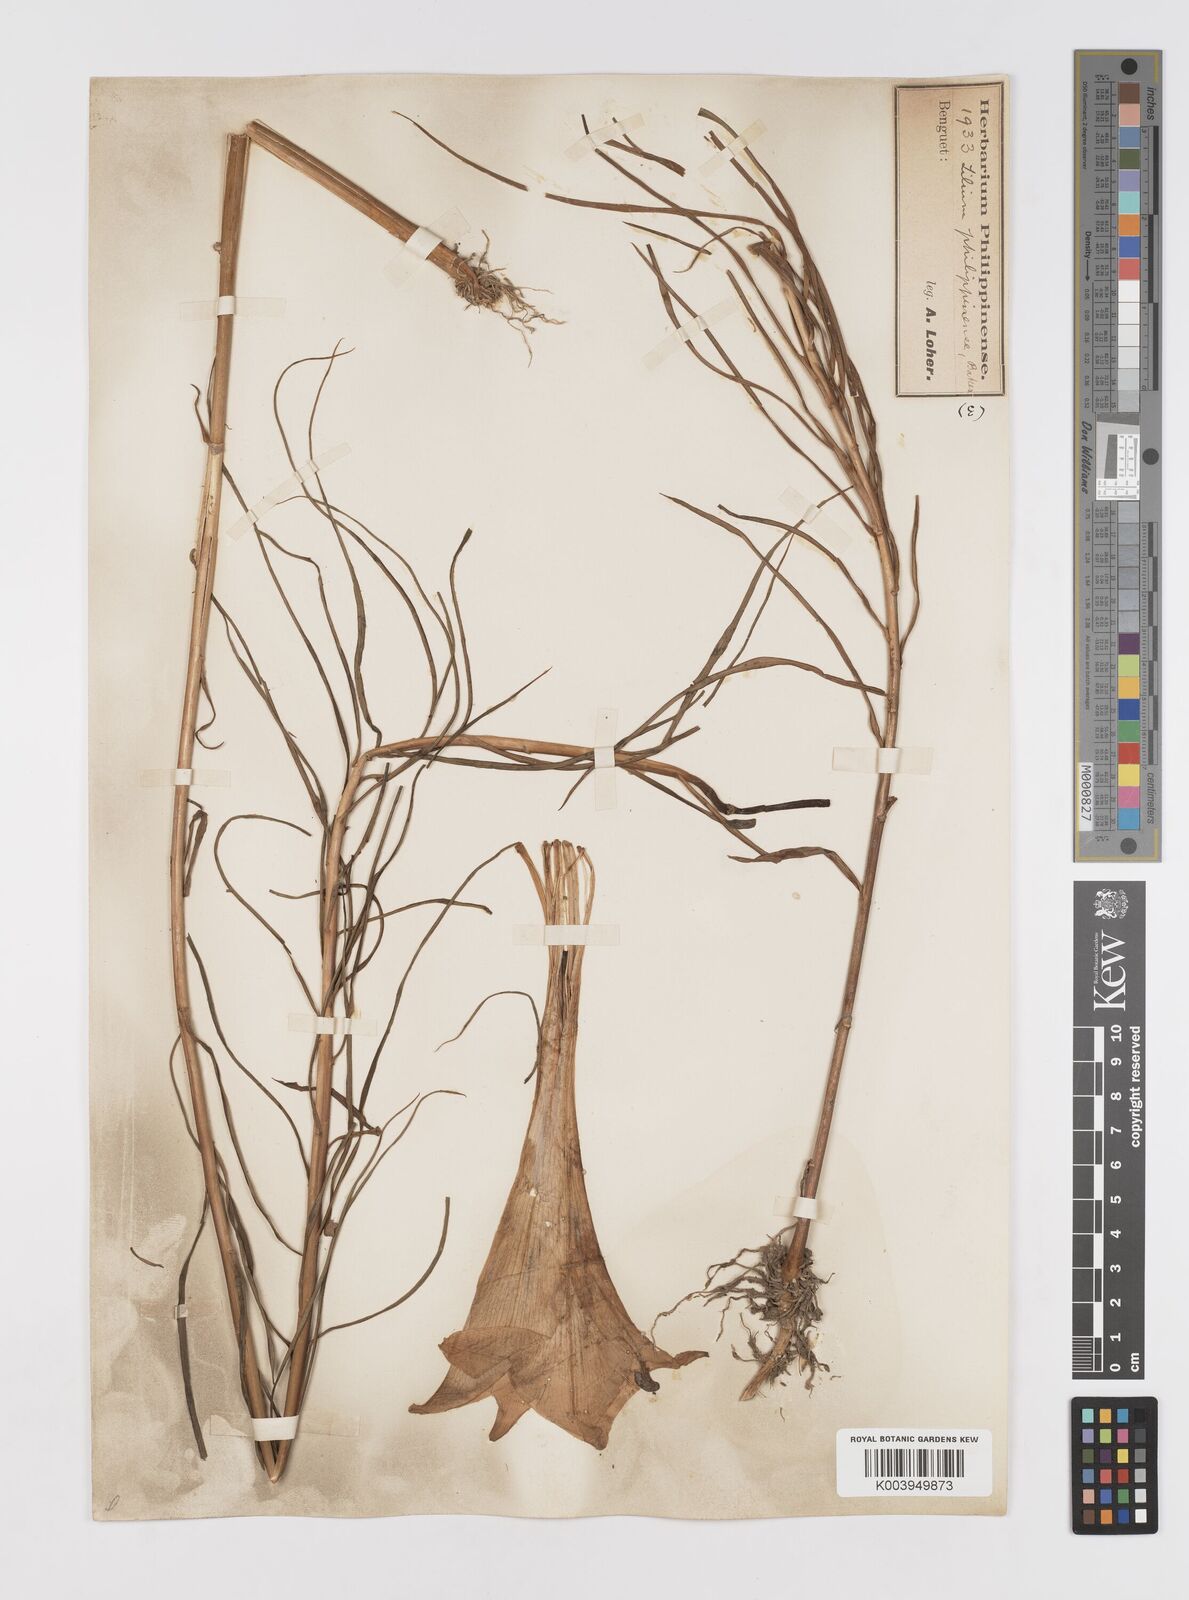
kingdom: Plantae
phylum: Tracheophyta
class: Liliopsida
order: Liliales
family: Liliaceae
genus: Lilium
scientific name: Lilium philippinense
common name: Philippine lily
